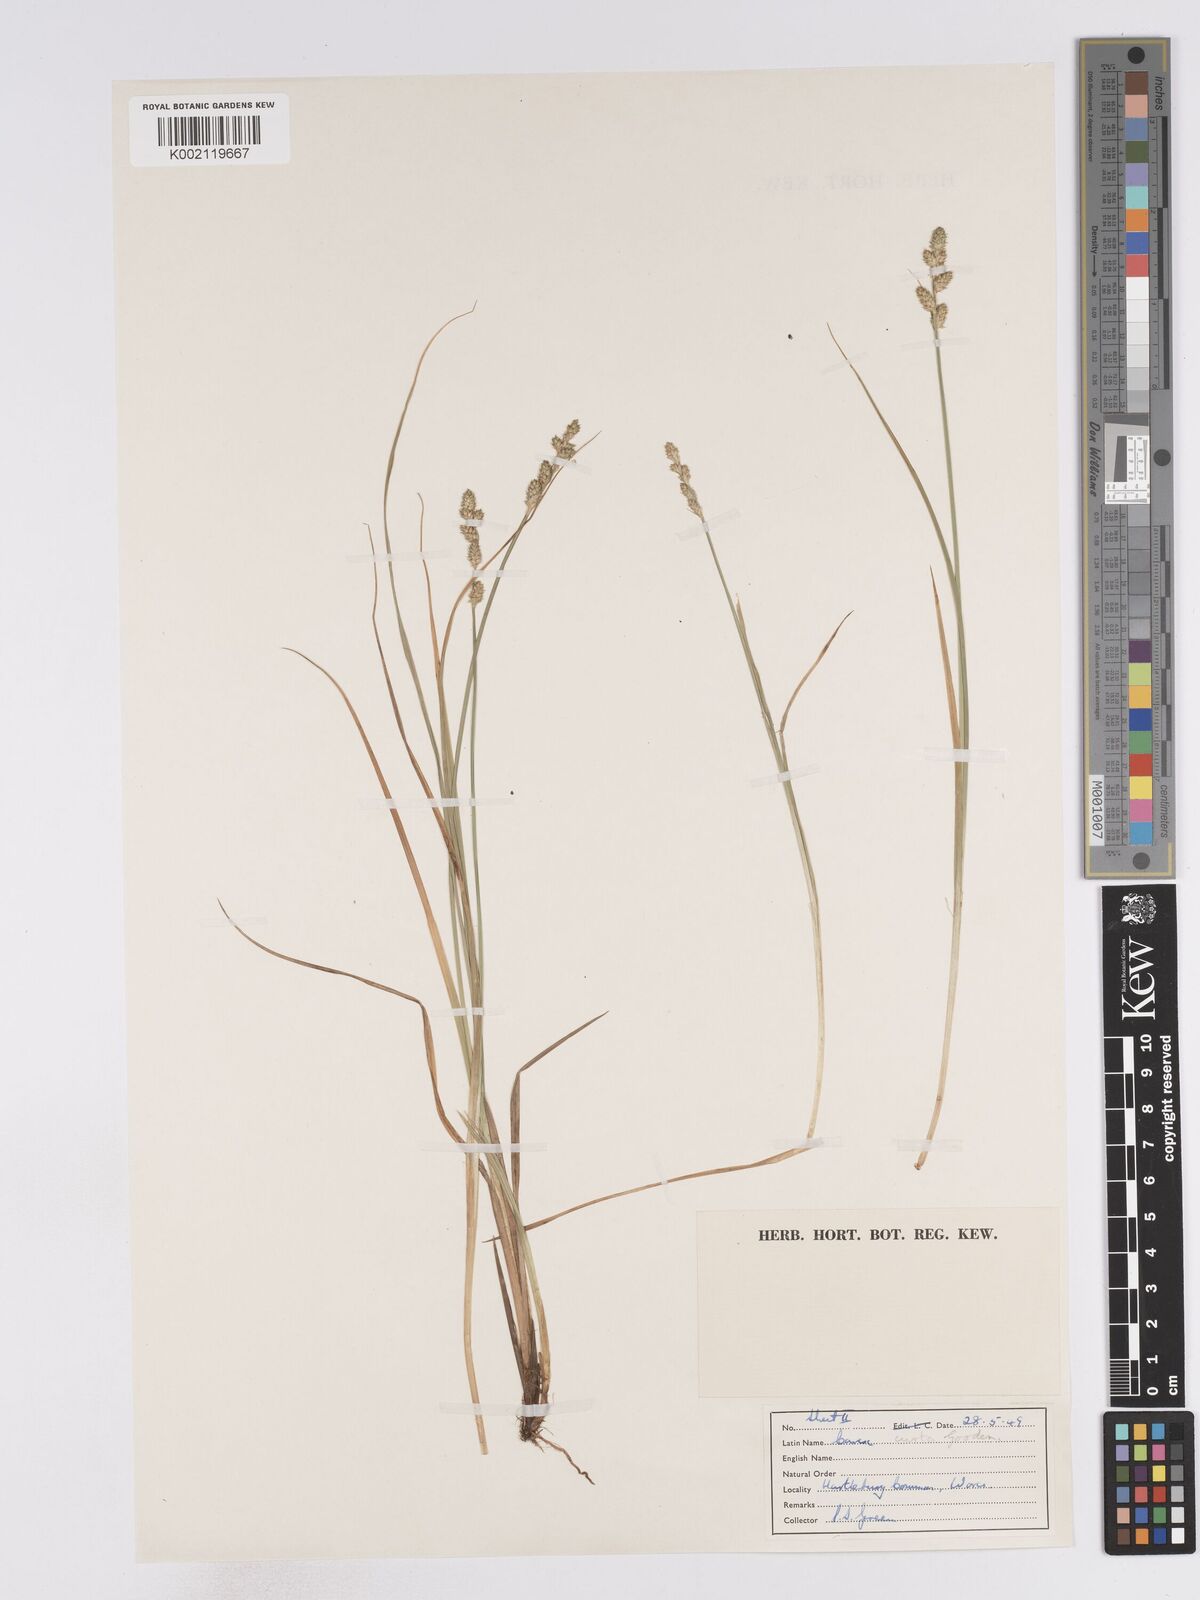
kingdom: Plantae
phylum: Tracheophyta
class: Liliopsida
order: Poales
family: Cyperaceae
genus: Carex
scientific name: Carex curta
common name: White sedge
